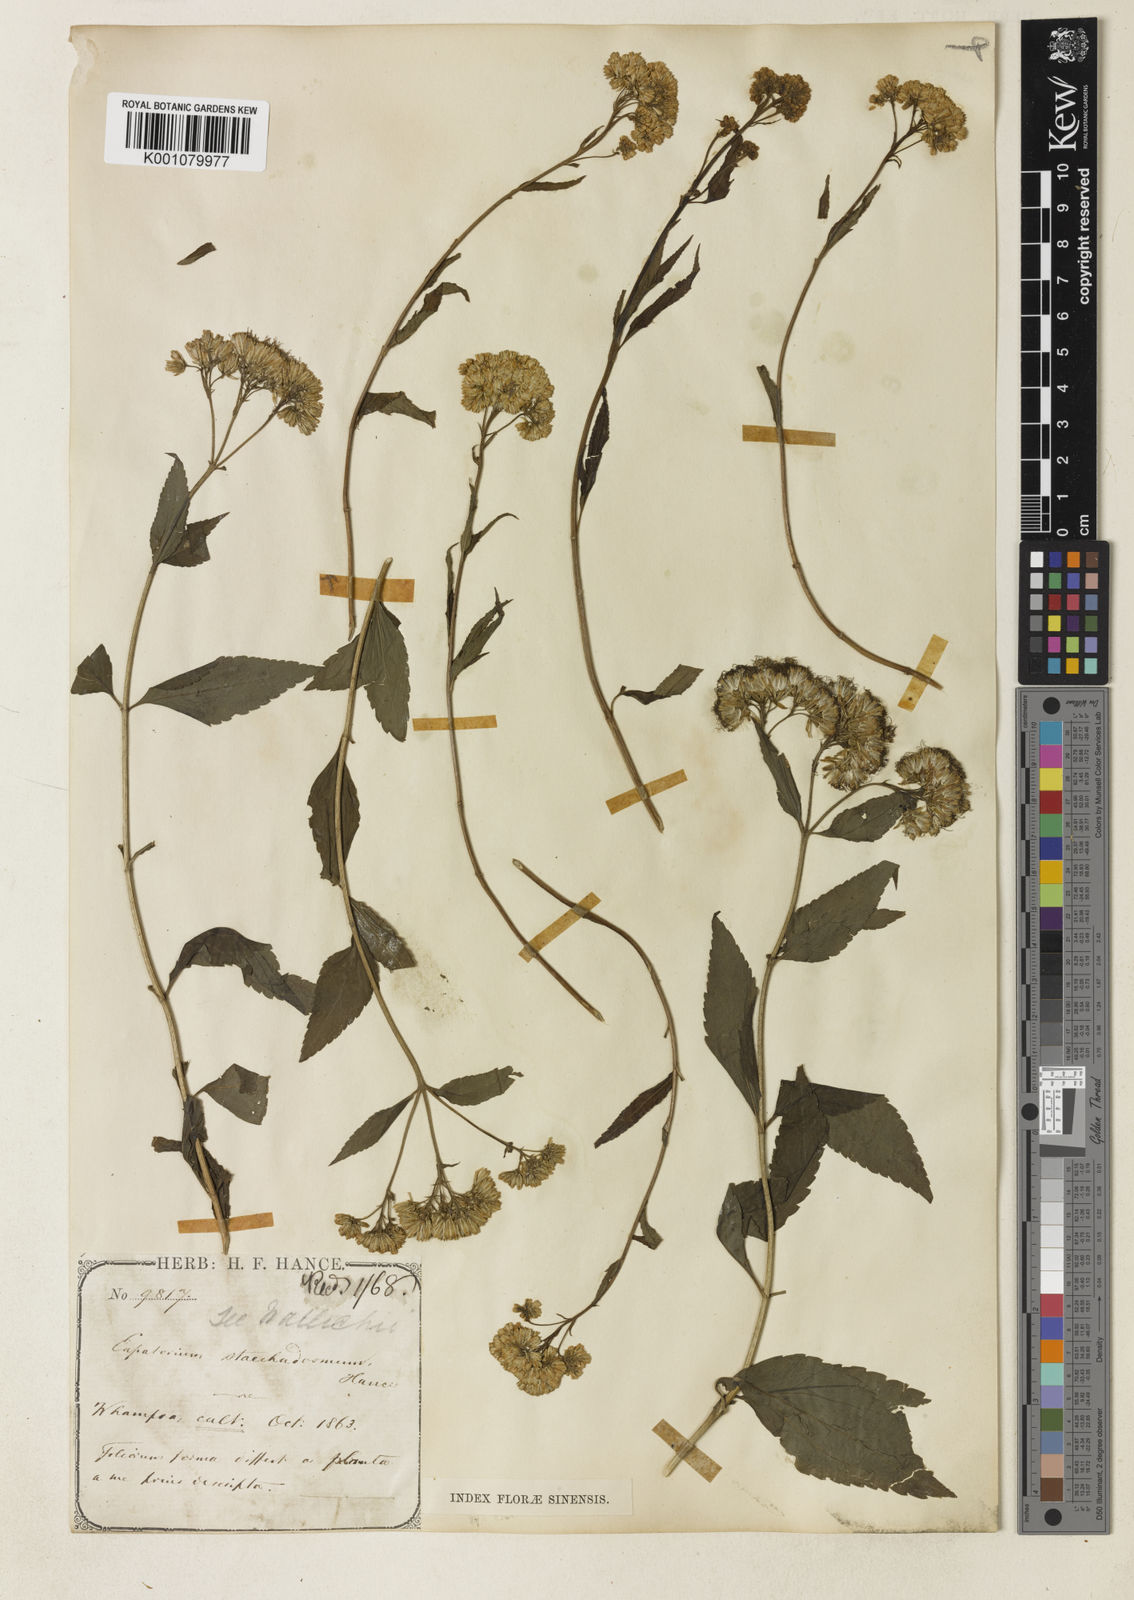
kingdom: Plantae
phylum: Tracheophyta
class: Magnoliopsida
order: Asterales
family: Asteraceae
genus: Eupatorium
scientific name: Eupatorium fortunei
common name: Chinese eupatorium
